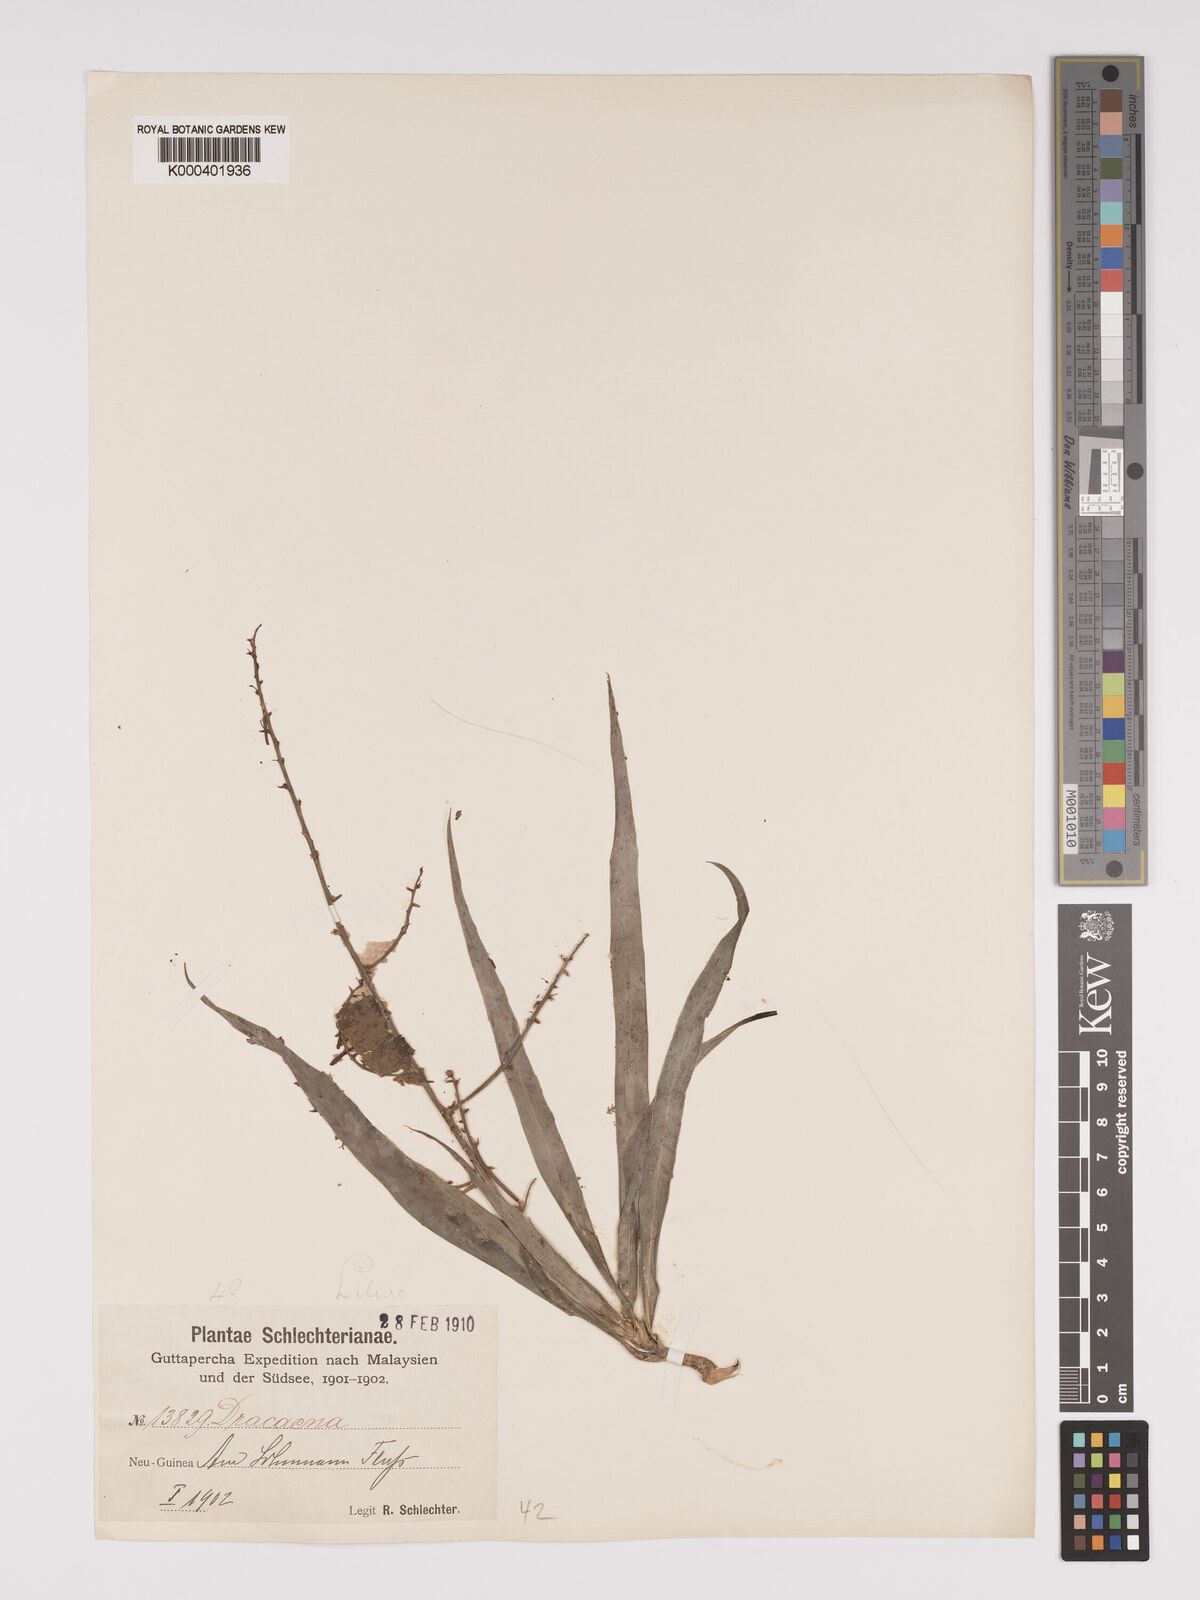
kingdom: Plantae
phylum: Tracheophyta
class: Liliopsida
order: Asparagales
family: Asparagaceae
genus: Dracaena
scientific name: Dracaena angustifolia
